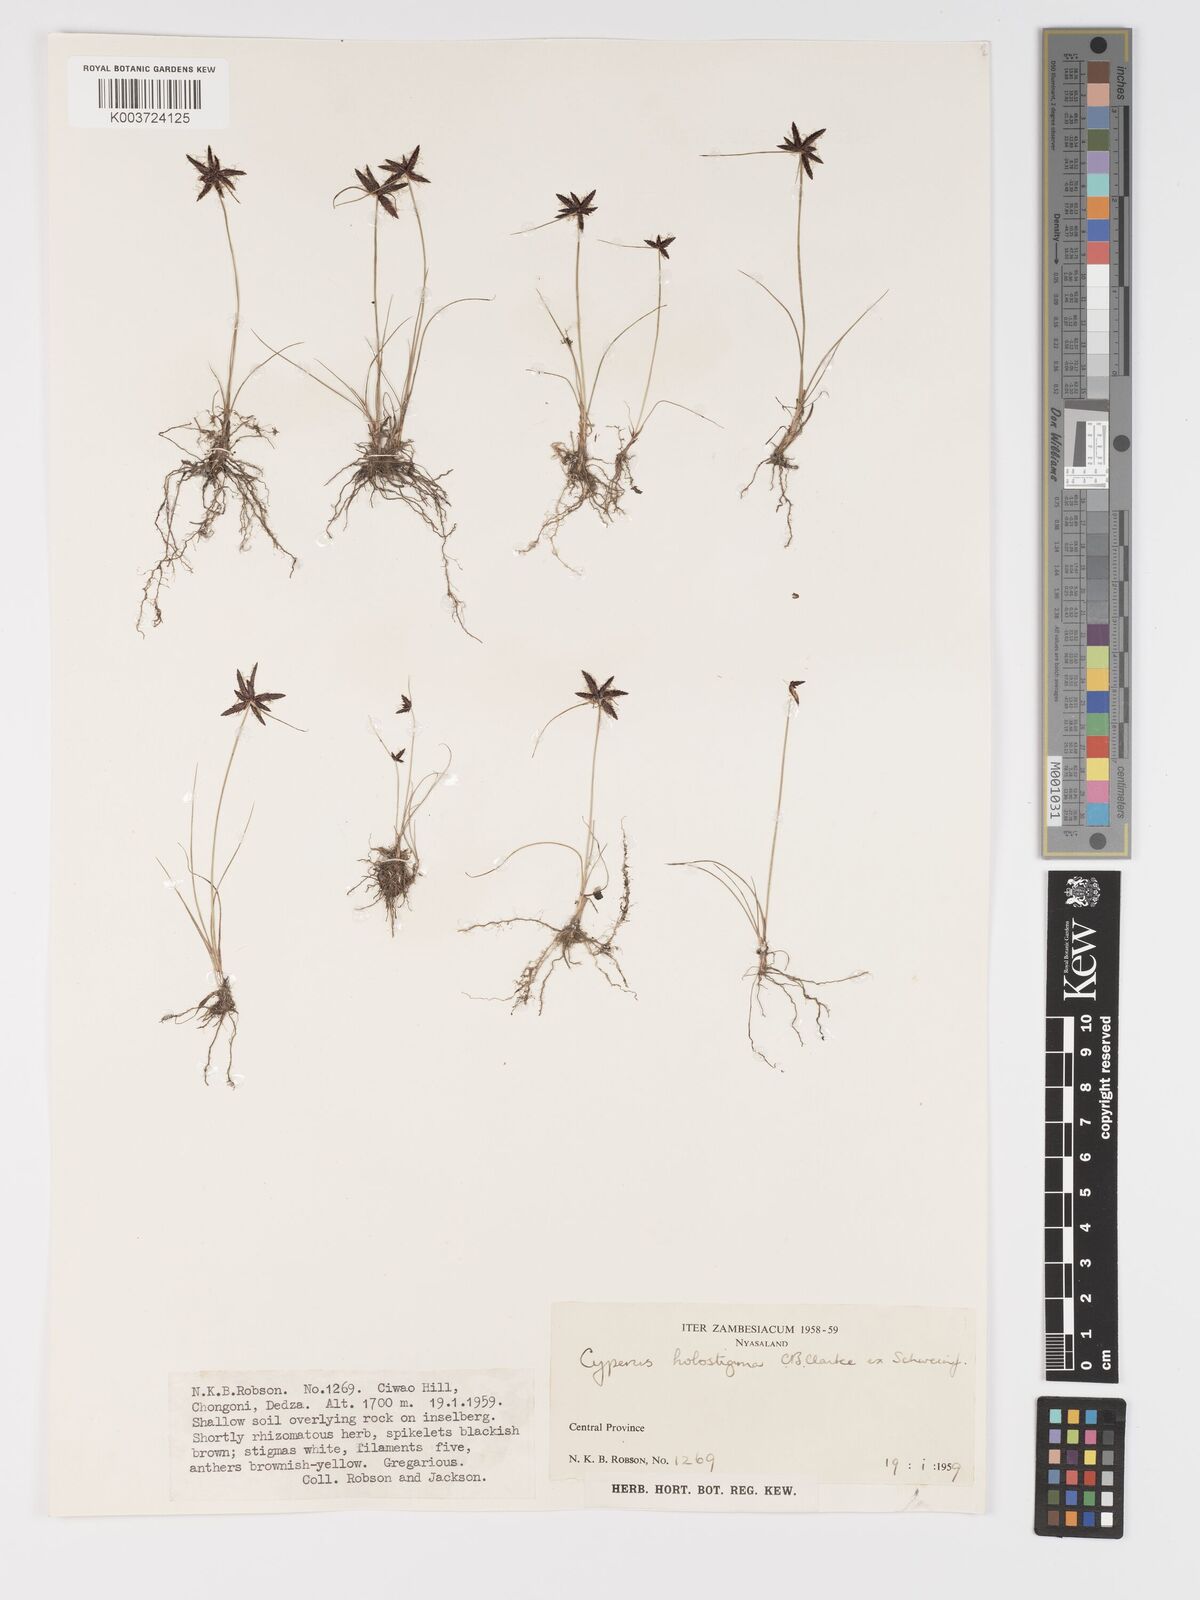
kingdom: Plantae
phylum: Tracheophyta
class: Liliopsida
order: Poales
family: Cyperaceae
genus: Cyperus
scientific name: Cyperus holostigma
